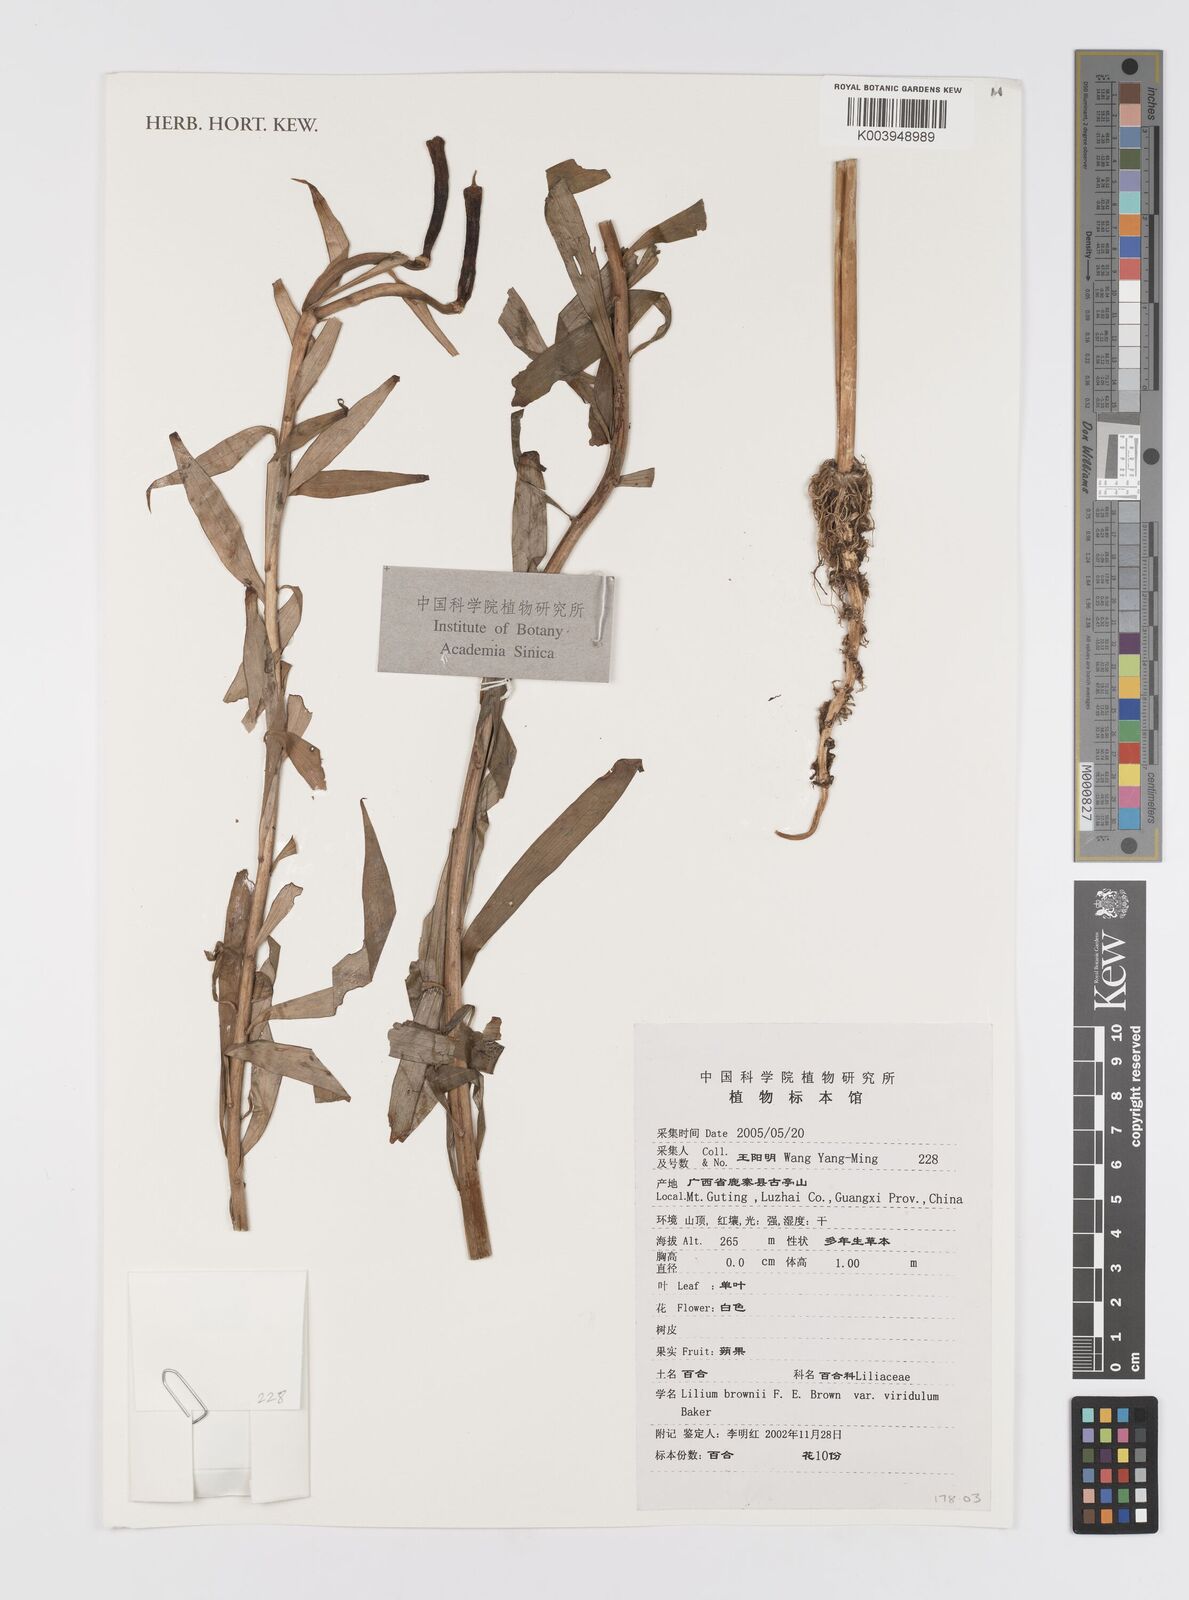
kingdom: Plantae
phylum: Tracheophyta
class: Liliopsida
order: Liliales
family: Liliaceae
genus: Lilium
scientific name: Lilium brownii
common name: Brown's lily
